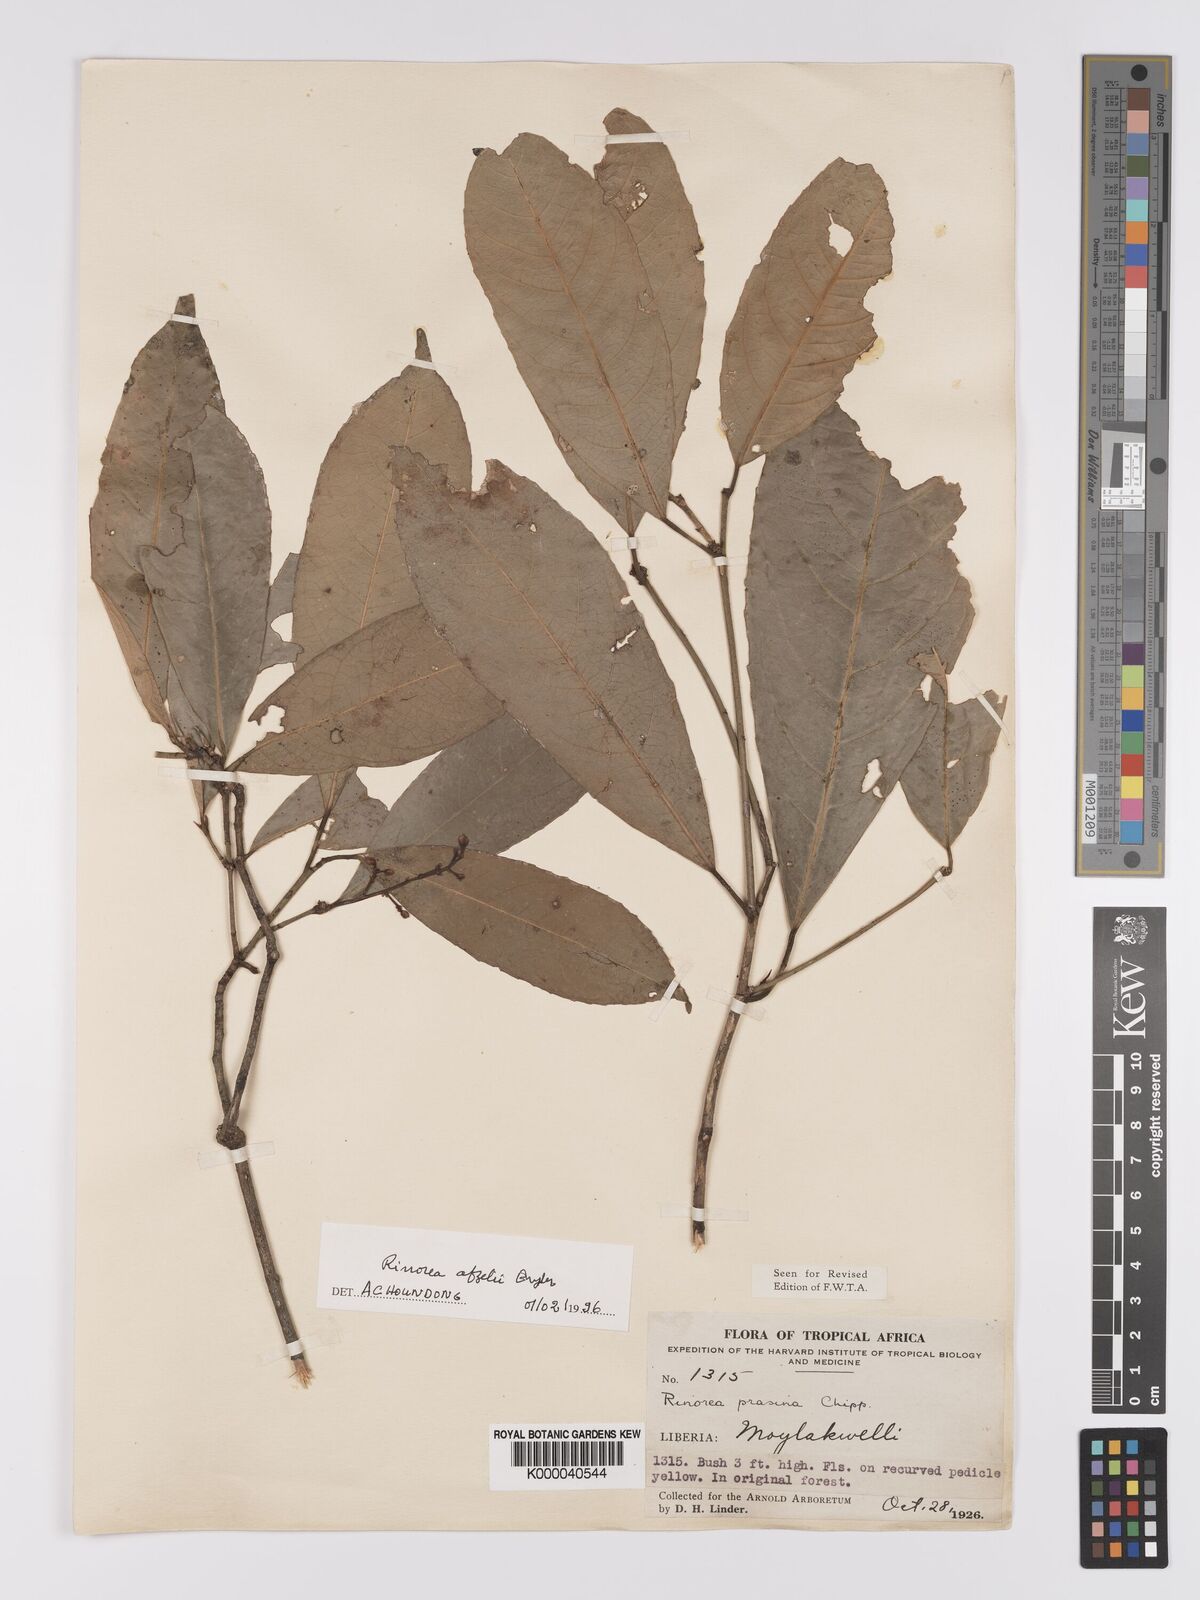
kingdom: Plantae
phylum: Tracheophyta
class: Magnoliopsida
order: Malpighiales
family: Violaceae
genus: Rinorea
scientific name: Rinorea afzelii
